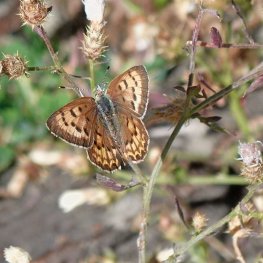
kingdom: Animalia
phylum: Arthropoda
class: Insecta
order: Lepidoptera
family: Sesiidae
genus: Sesia
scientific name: Sesia Lycaena helloides
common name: Purplish Copper
